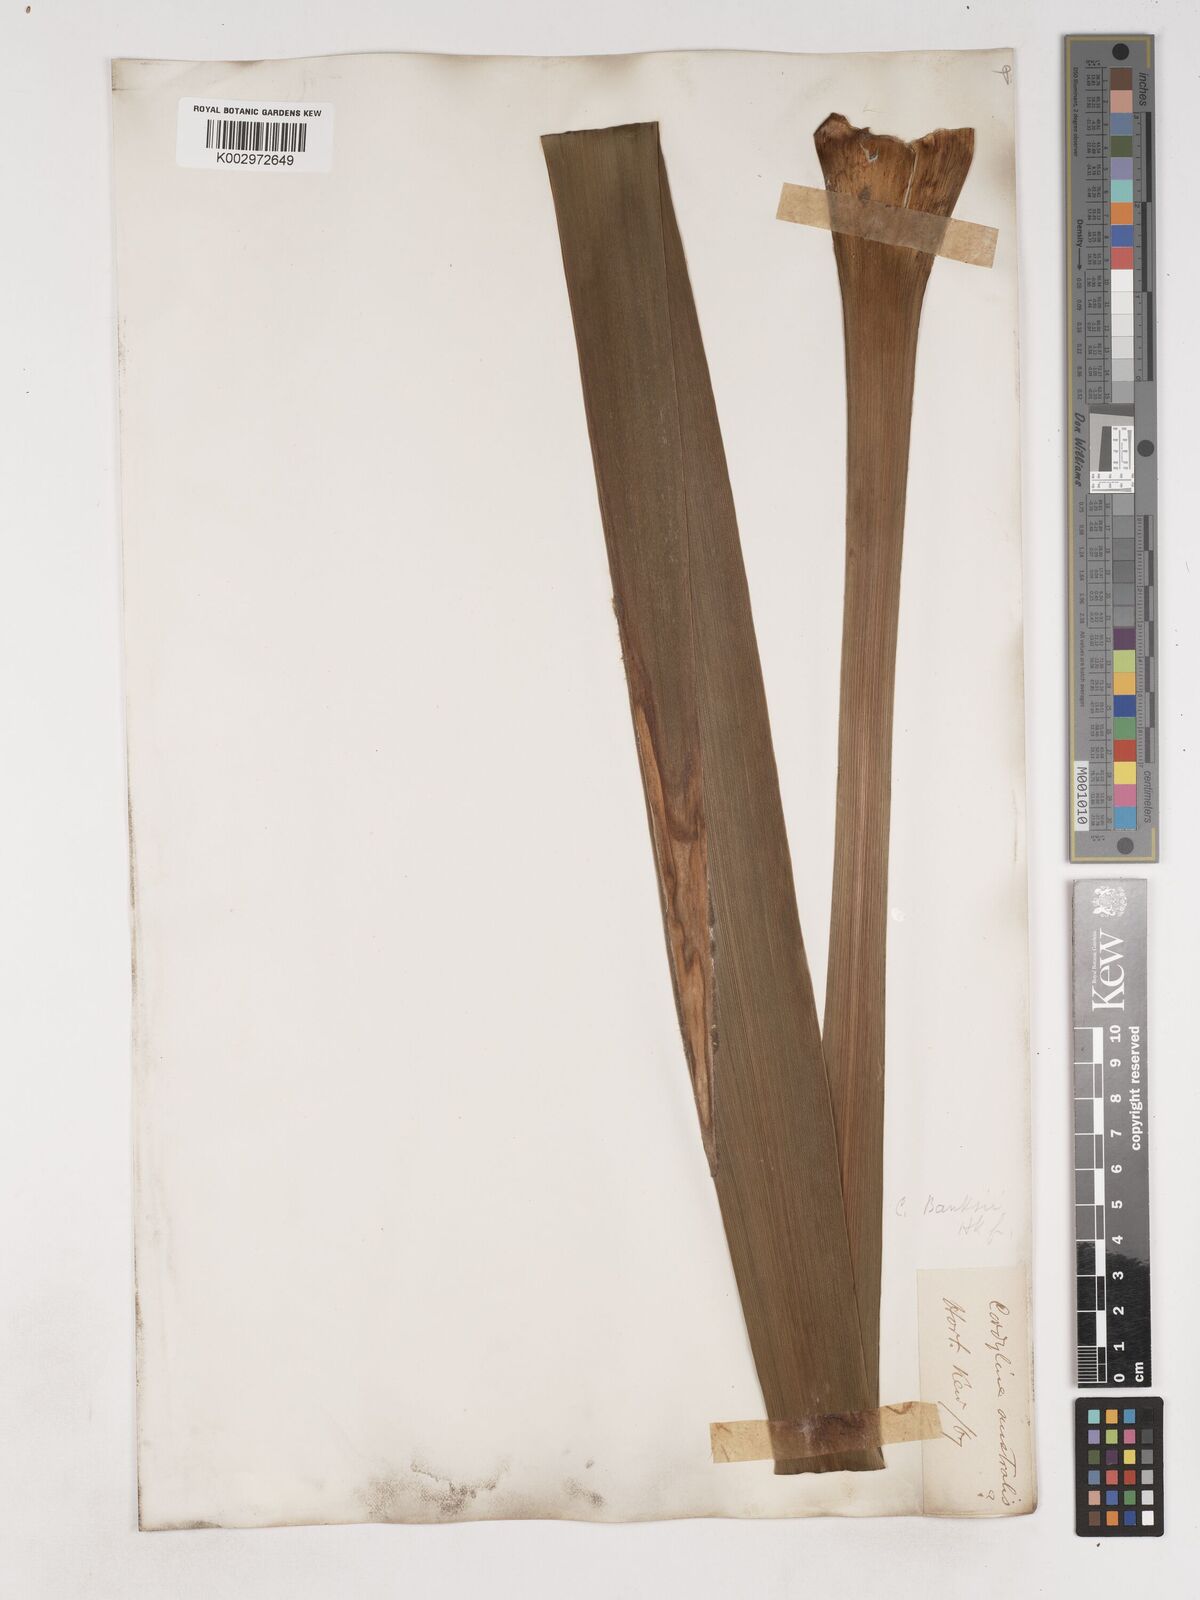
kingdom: Plantae
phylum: Tracheophyta
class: Liliopsida
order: Asparagales
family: Asparagaceae
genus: Cordyline
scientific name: Cordyline banksii
